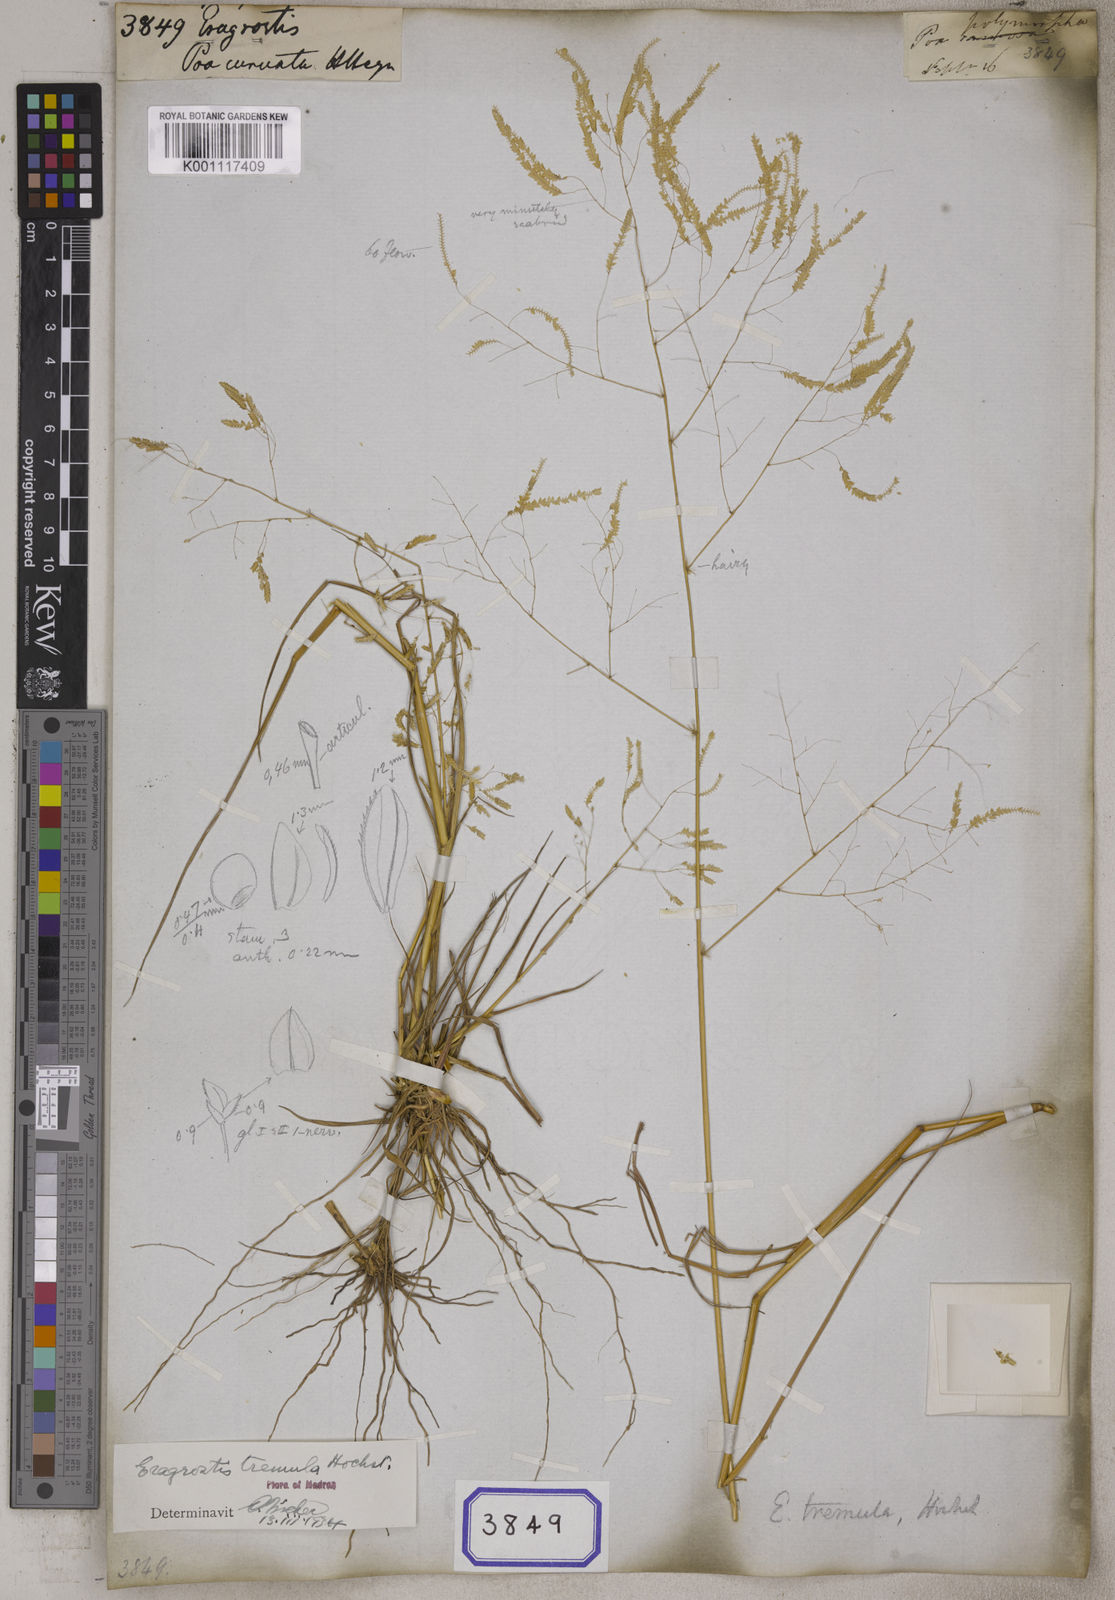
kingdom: Plantae
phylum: Tracheophyta
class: Liliopsida
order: Poales
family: Poaceae
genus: Eragrostis
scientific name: Eragrostis
